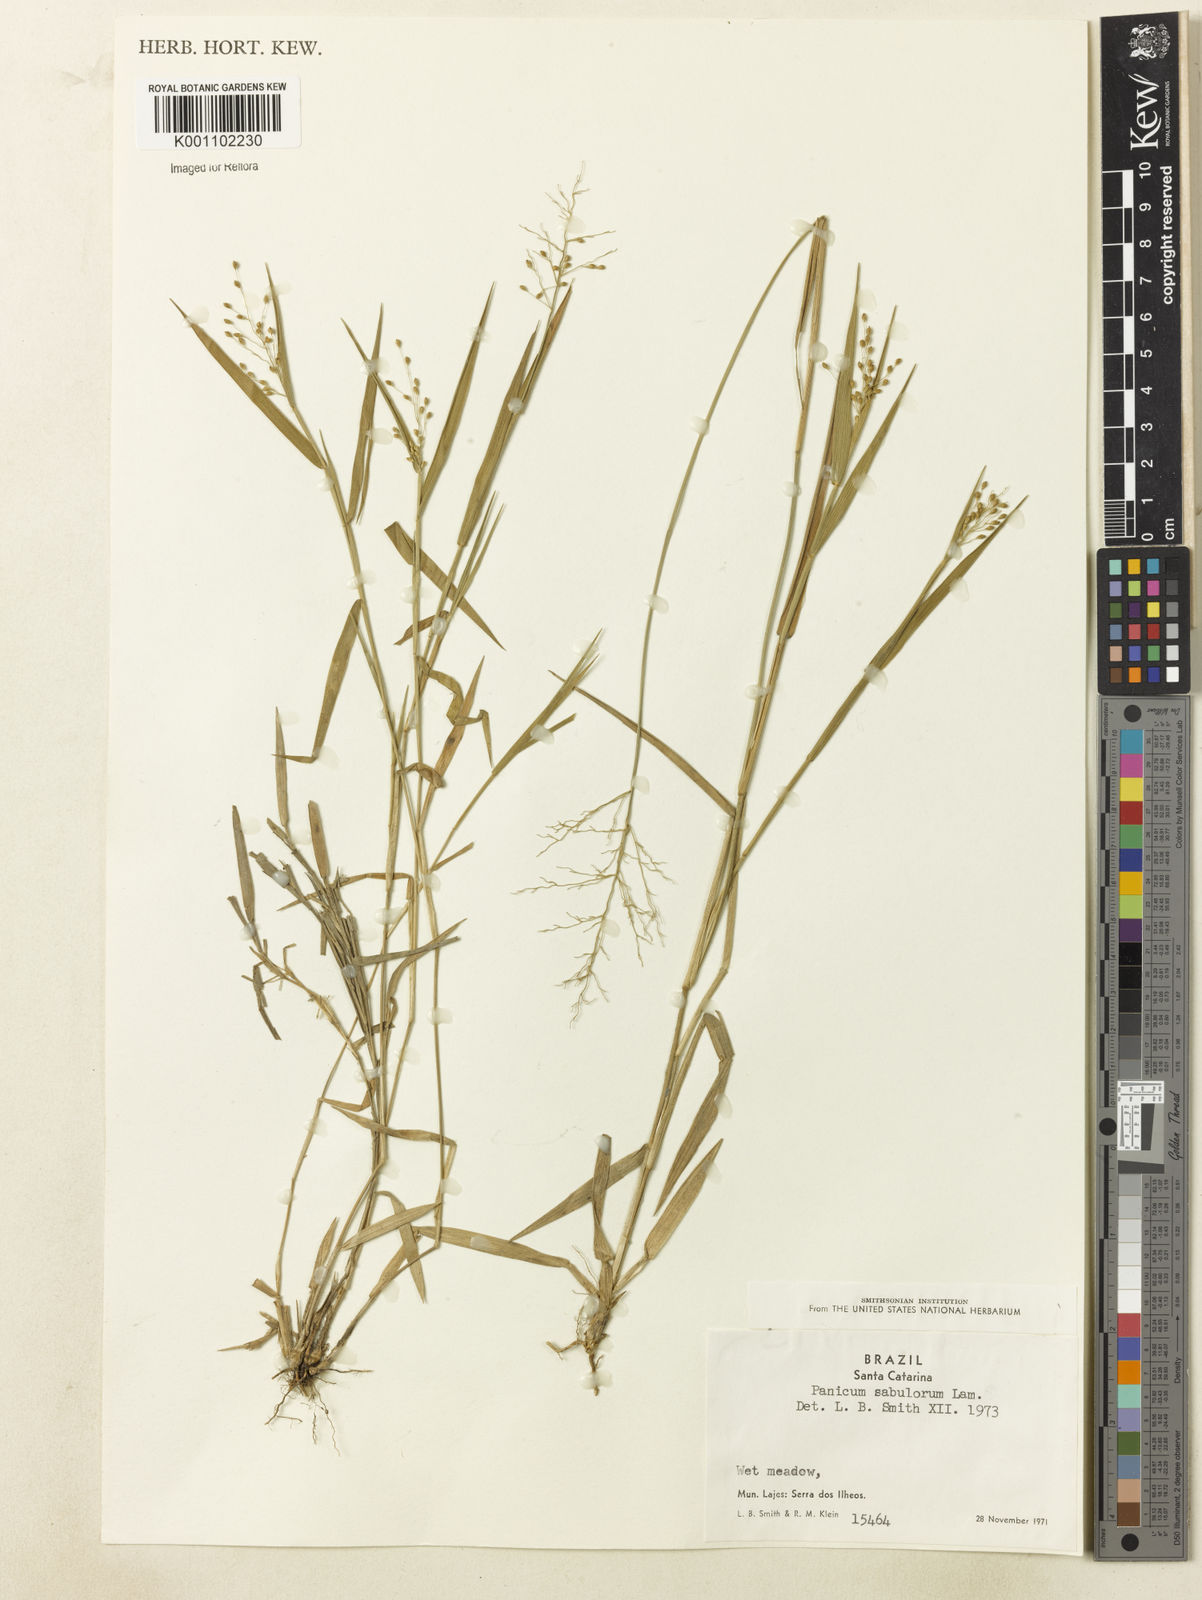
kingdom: Plantae
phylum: Tracheophyta
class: Liliopsida
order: Poales
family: Poaceae
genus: Dichanthelium
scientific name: Dichanthelium sabulorum
